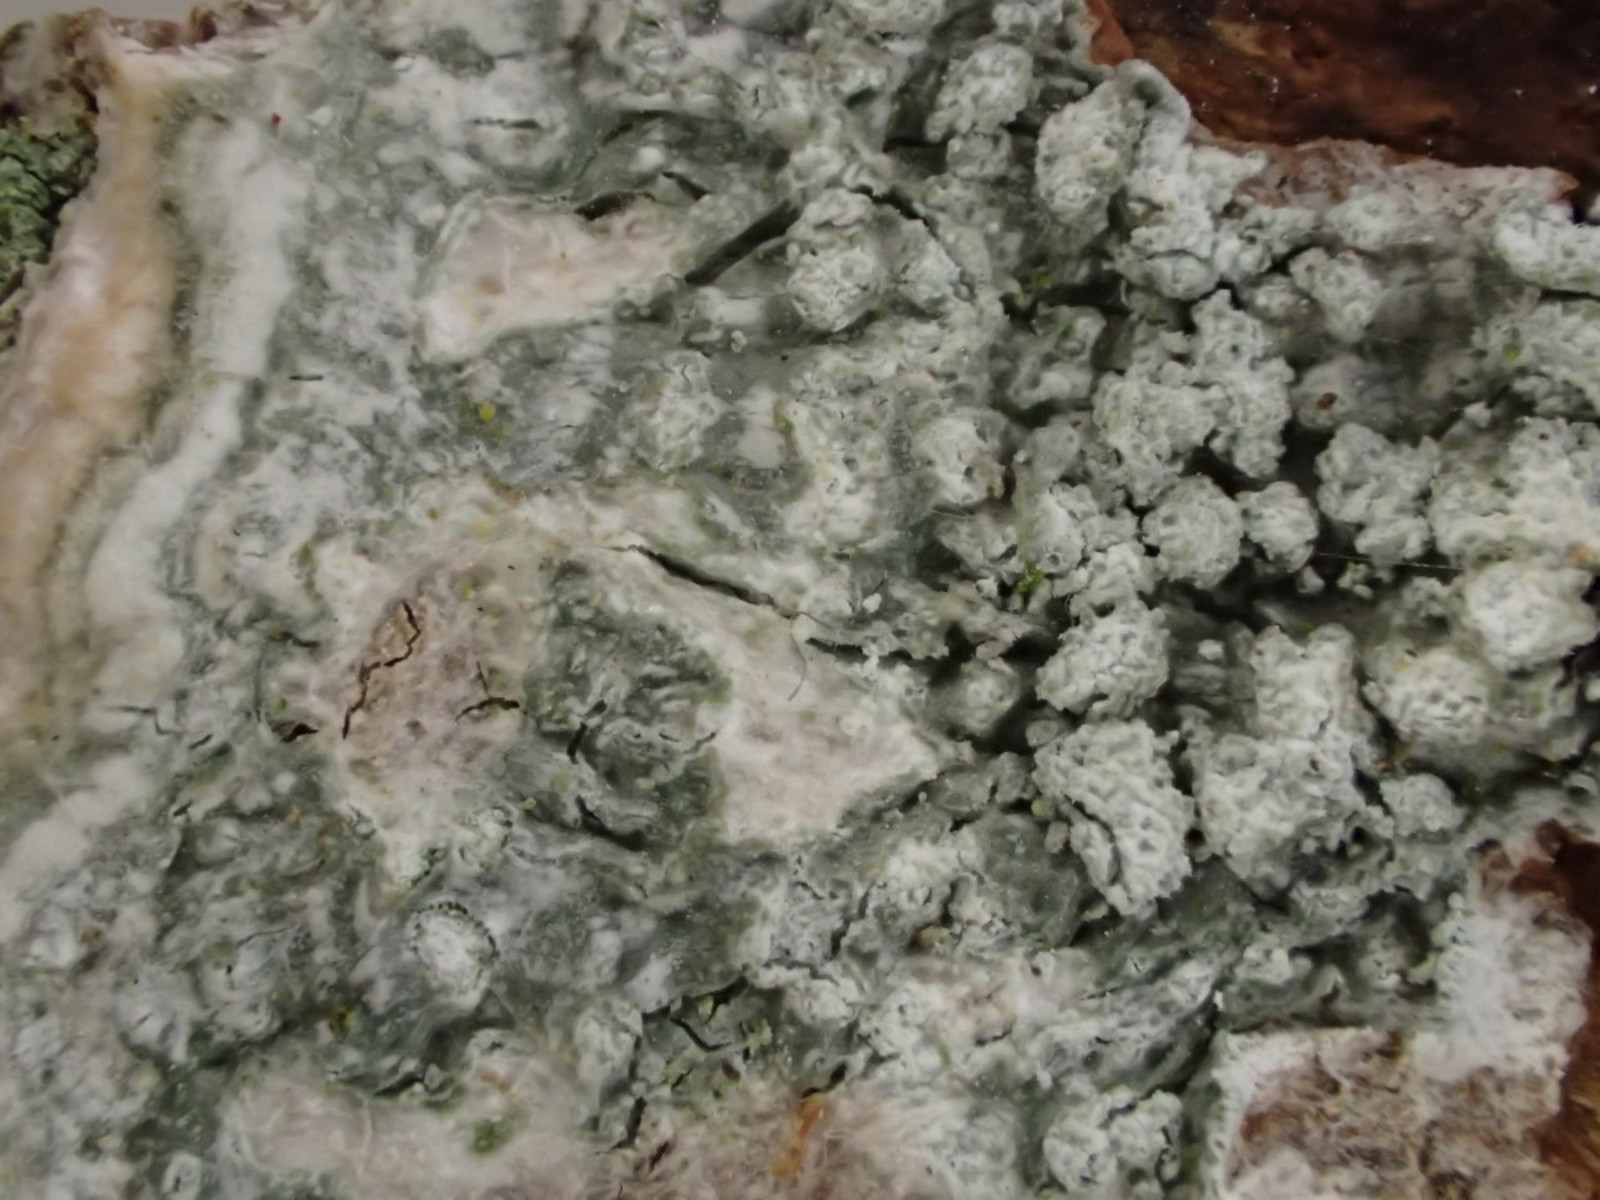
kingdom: Fungi
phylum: Ascomycota
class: Lecanoromycetes
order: Pertusariales
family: Pertusariaceae
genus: Lepra
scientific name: Lepra amara
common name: bitter prikvortelav
